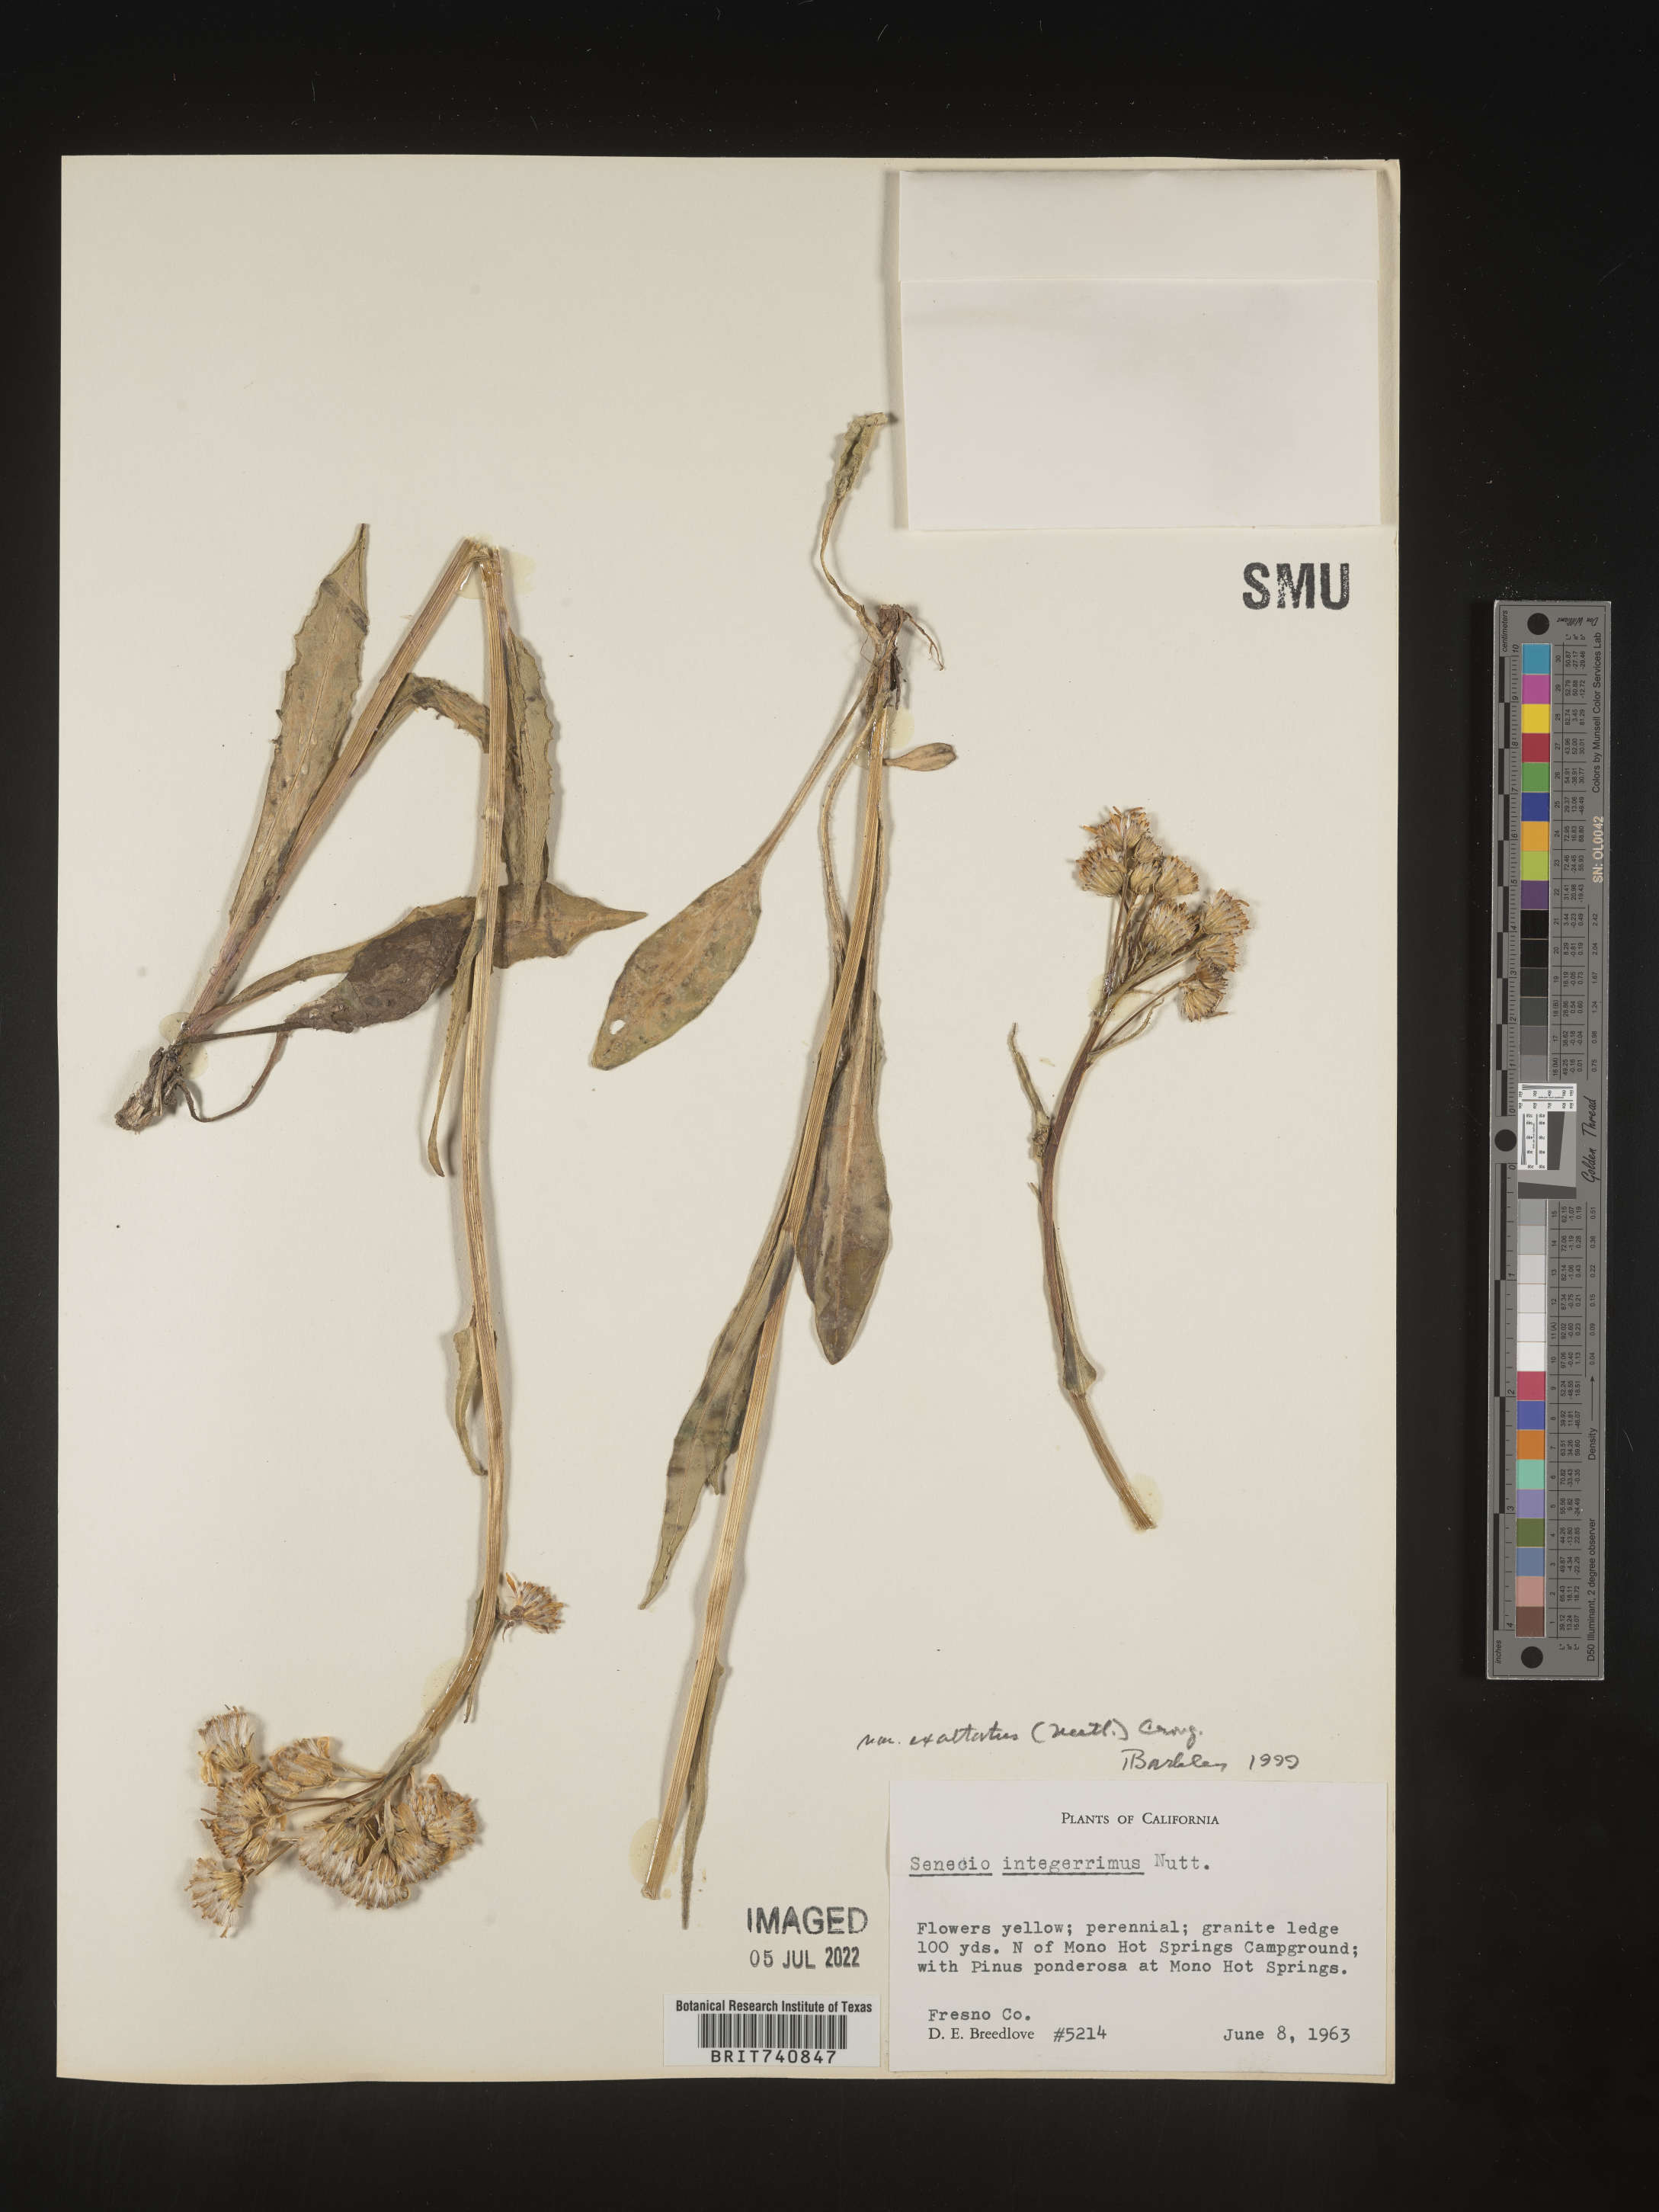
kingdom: Plantae
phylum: Tracheophyta
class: Magnoliopsida
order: Asterales
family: Asteraceae
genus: Senecio
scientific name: Senecio integerrimus
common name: Gaugeplant
